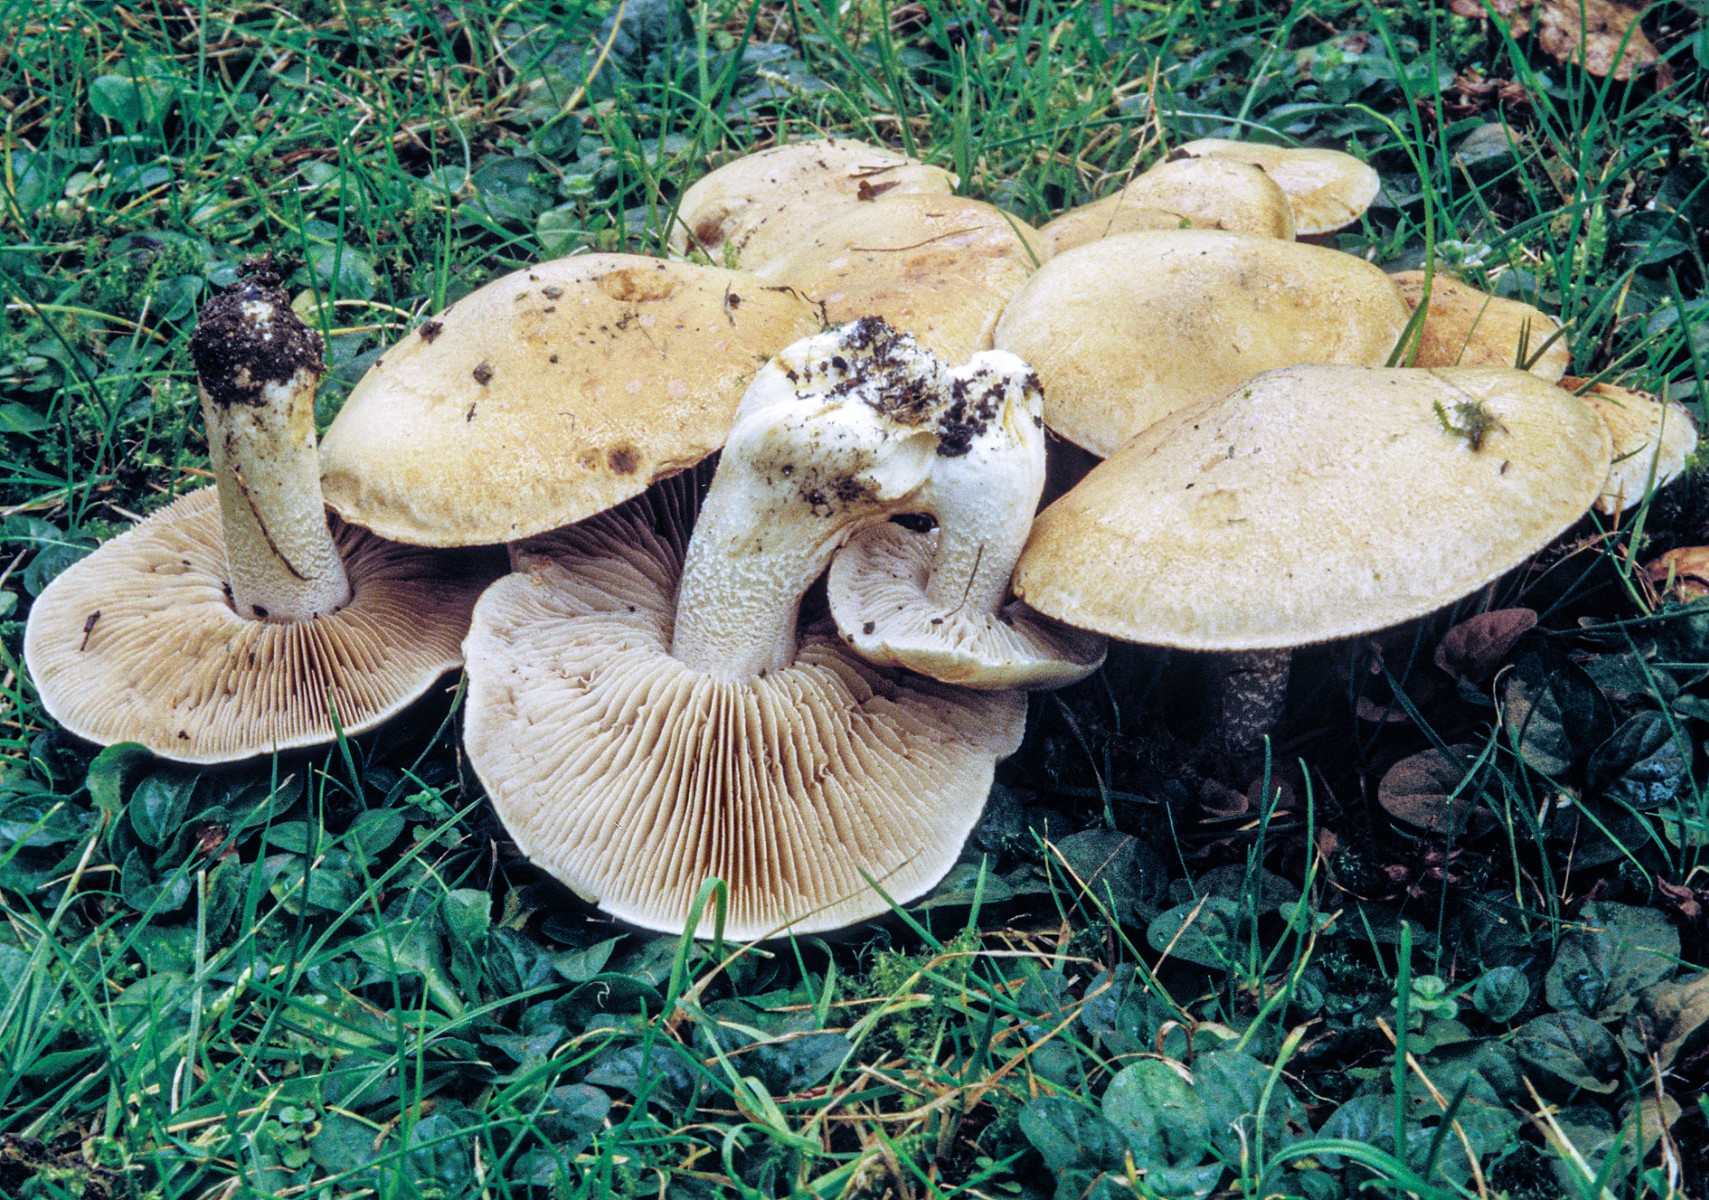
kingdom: Fungi
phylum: Basidiomycota
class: Agaricomycetes
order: Agaricales
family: Hymenogastraceae
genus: Hebeloma
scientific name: Hebeloma crustuliniforme
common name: almindelig tåreblad
